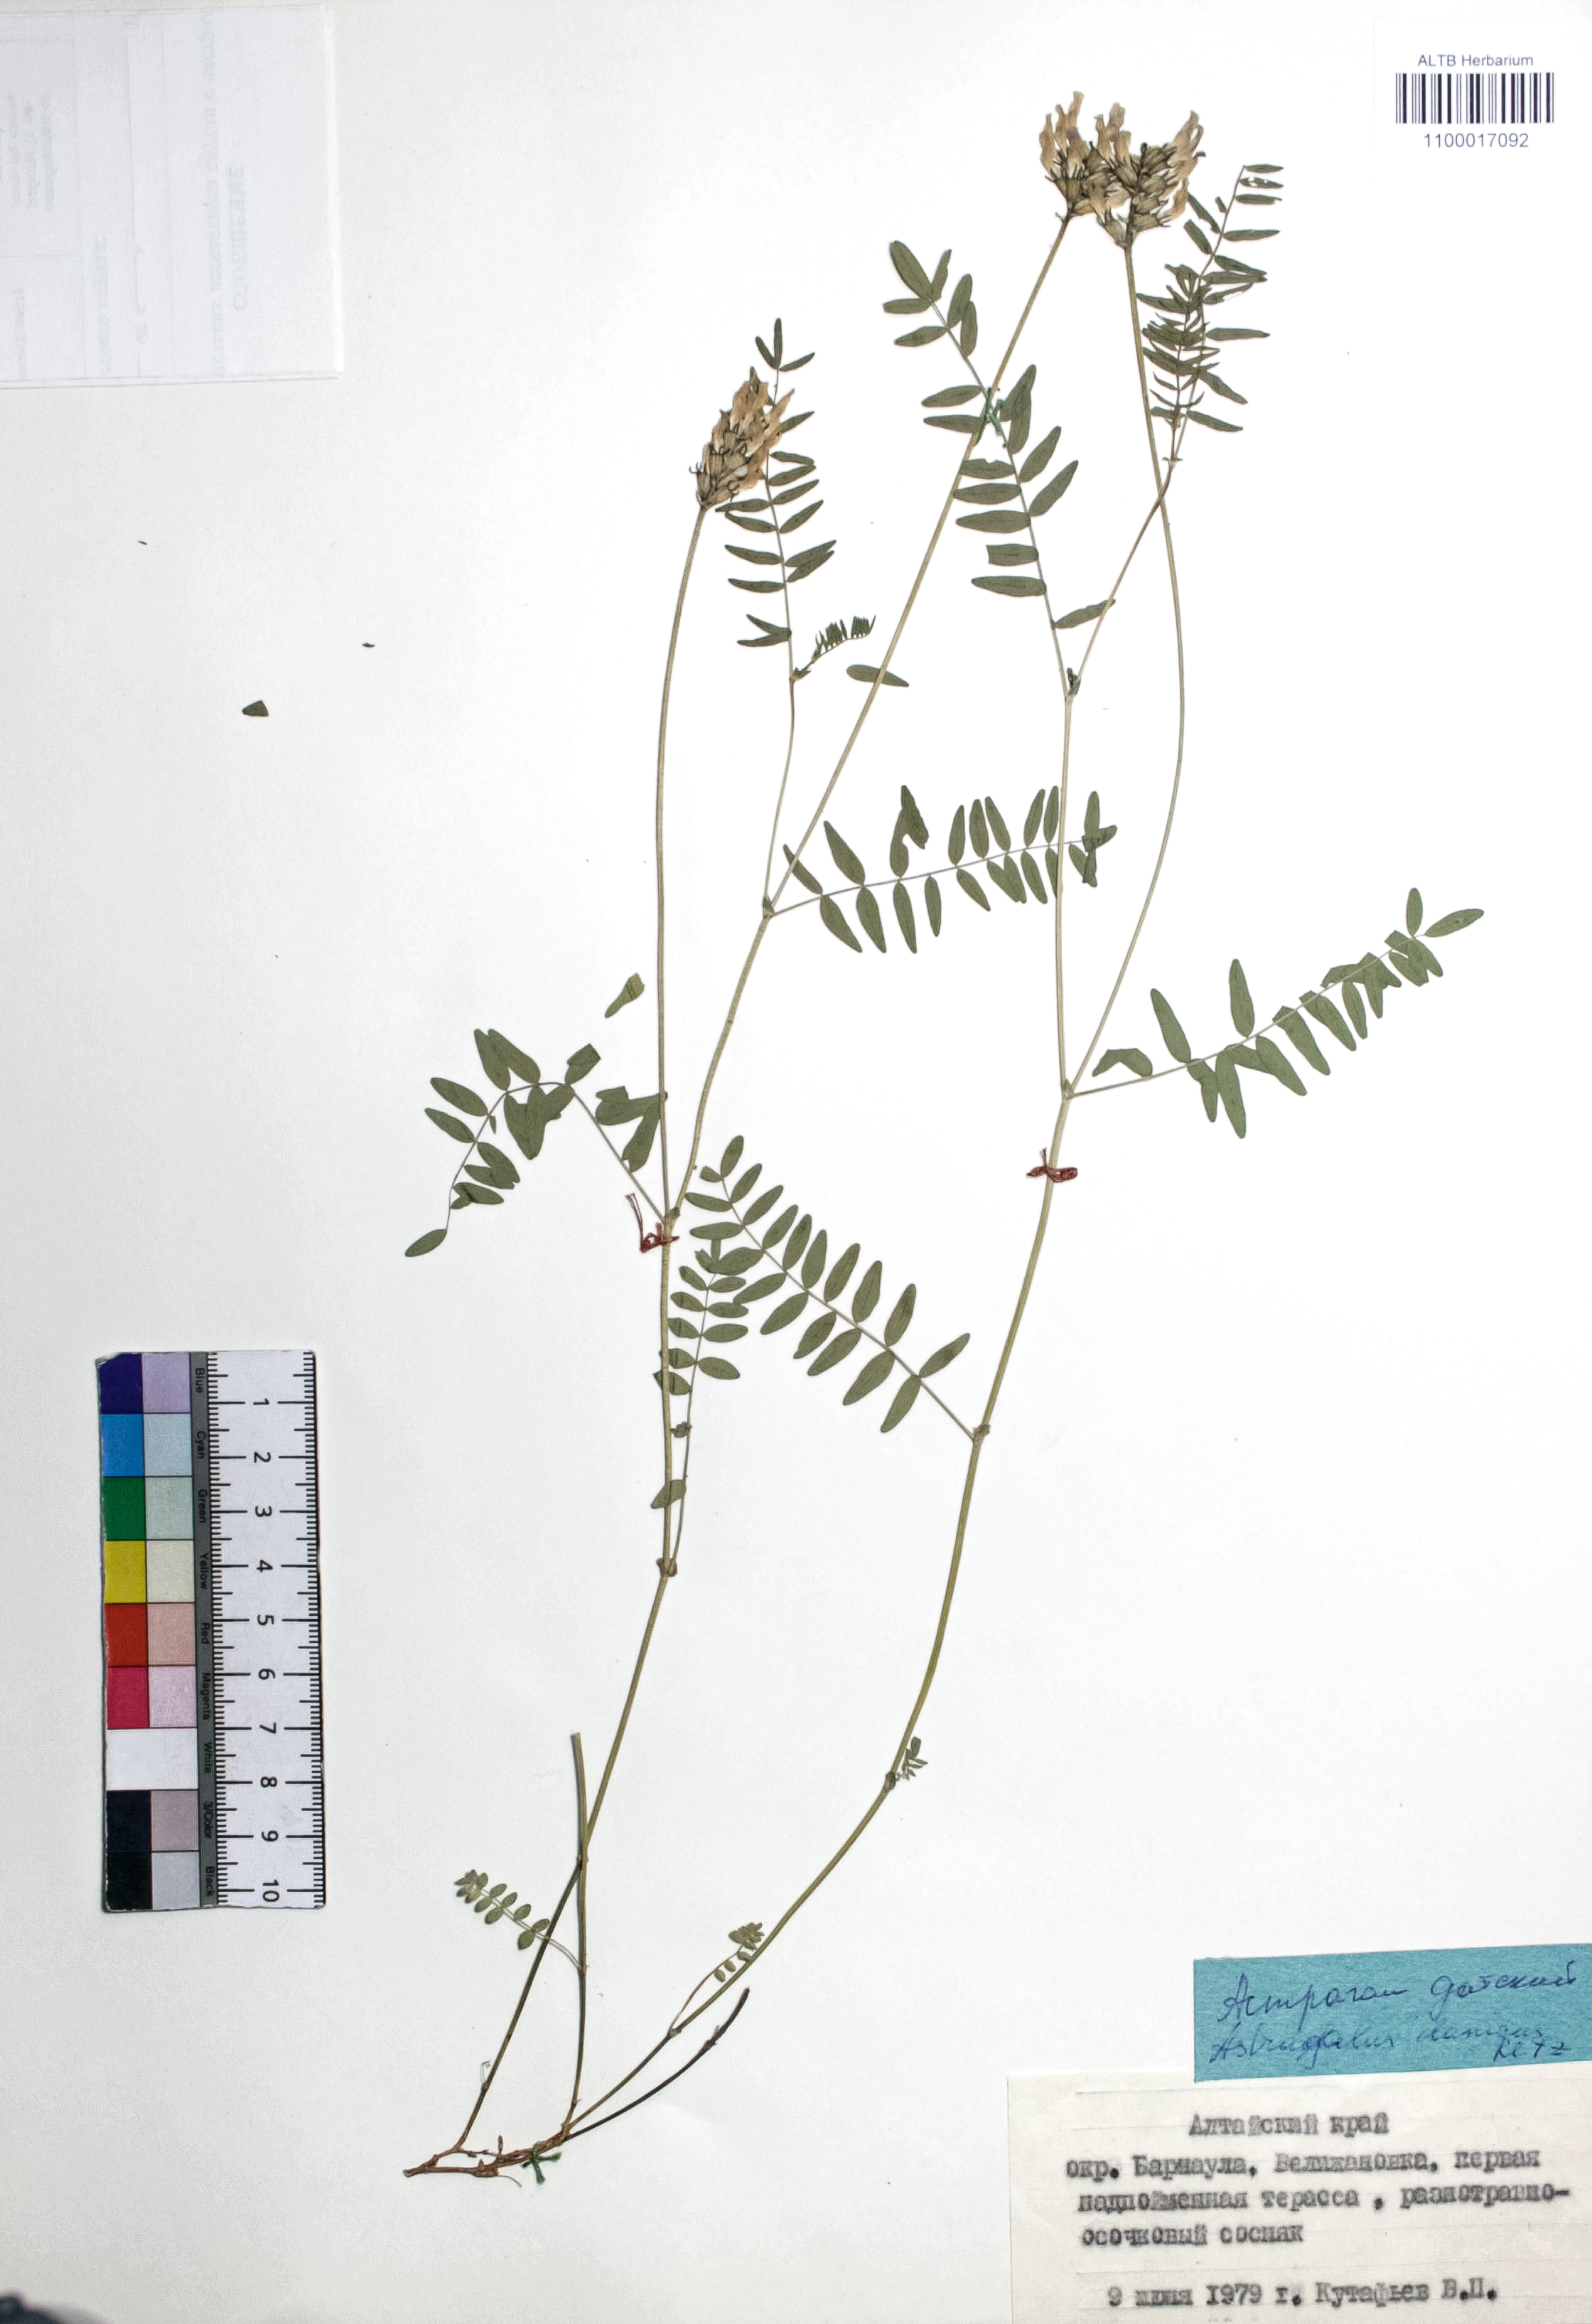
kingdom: Plantae
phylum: Tracheophyta
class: Magnoliopsida
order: Fabales
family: Fabaceae
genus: Astragalus
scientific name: Astragalus danicus
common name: Purple milk-vetch
